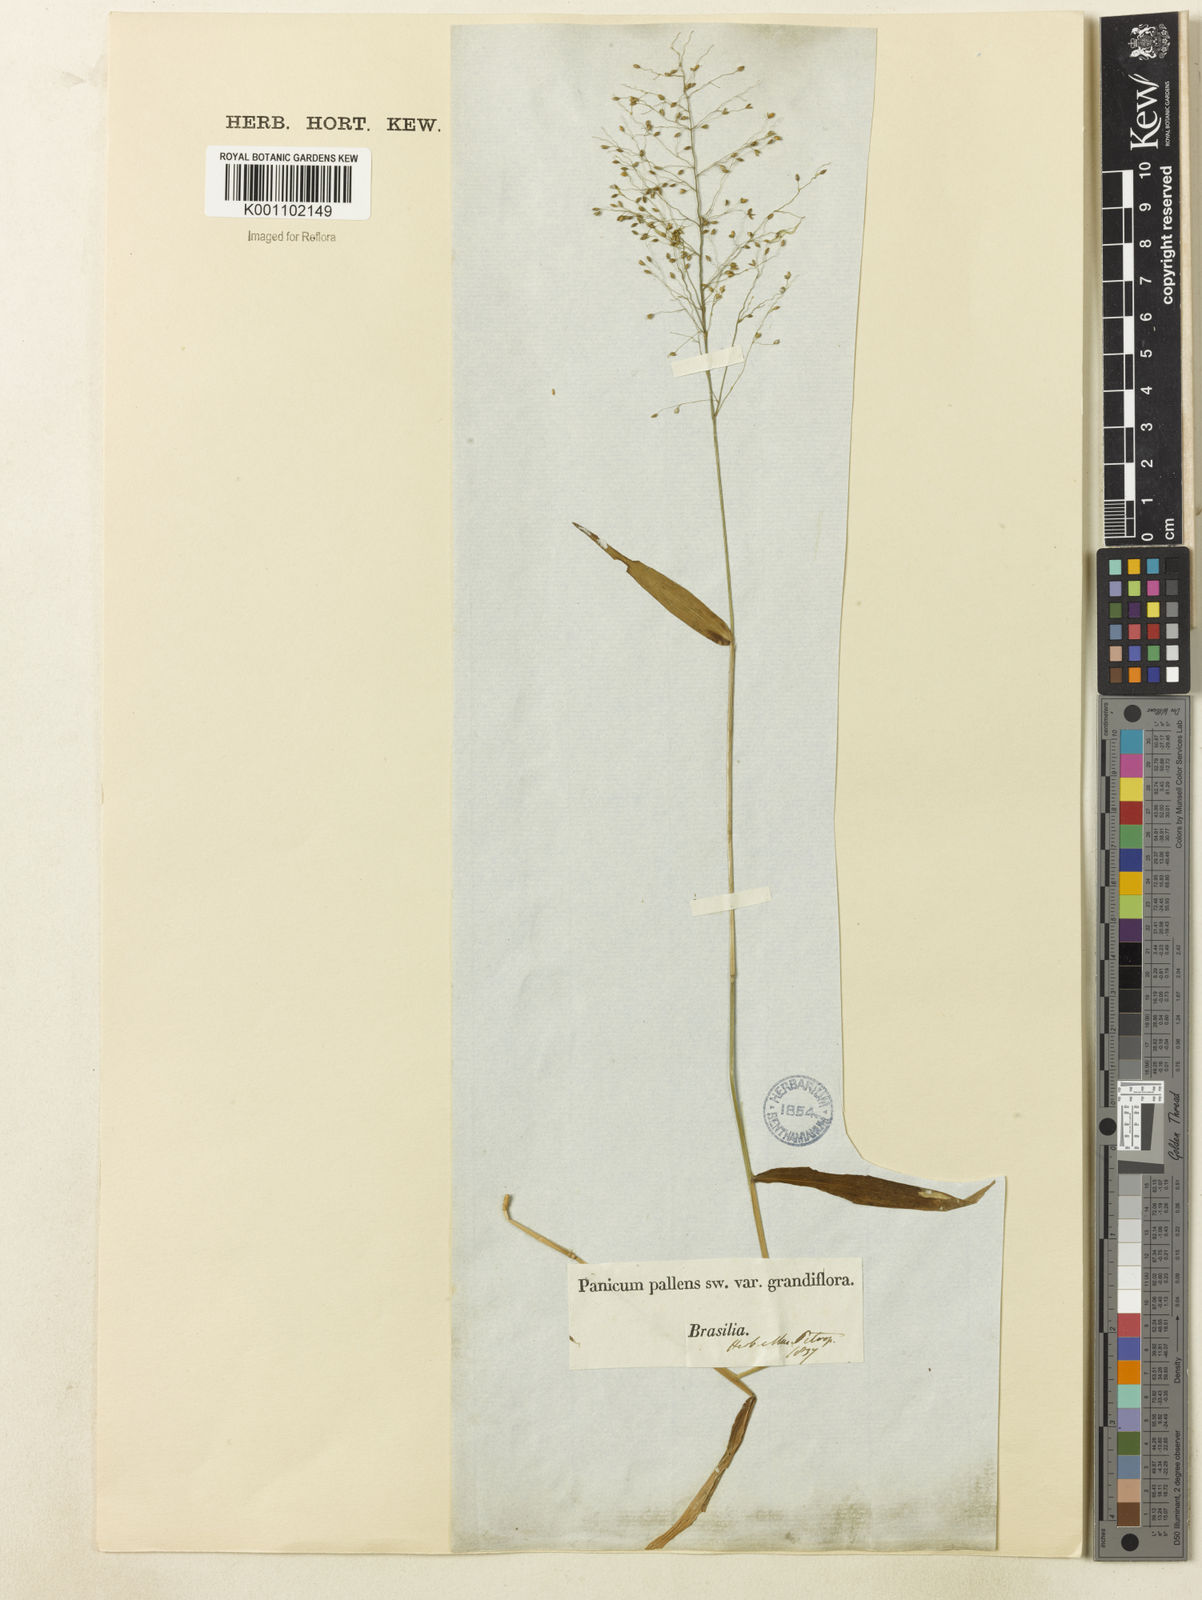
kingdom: Plantae
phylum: Tracheophyta
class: Liliopsida
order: Poales
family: Poaceae
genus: Dichanthelium
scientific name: Dichanthelium hebotes
